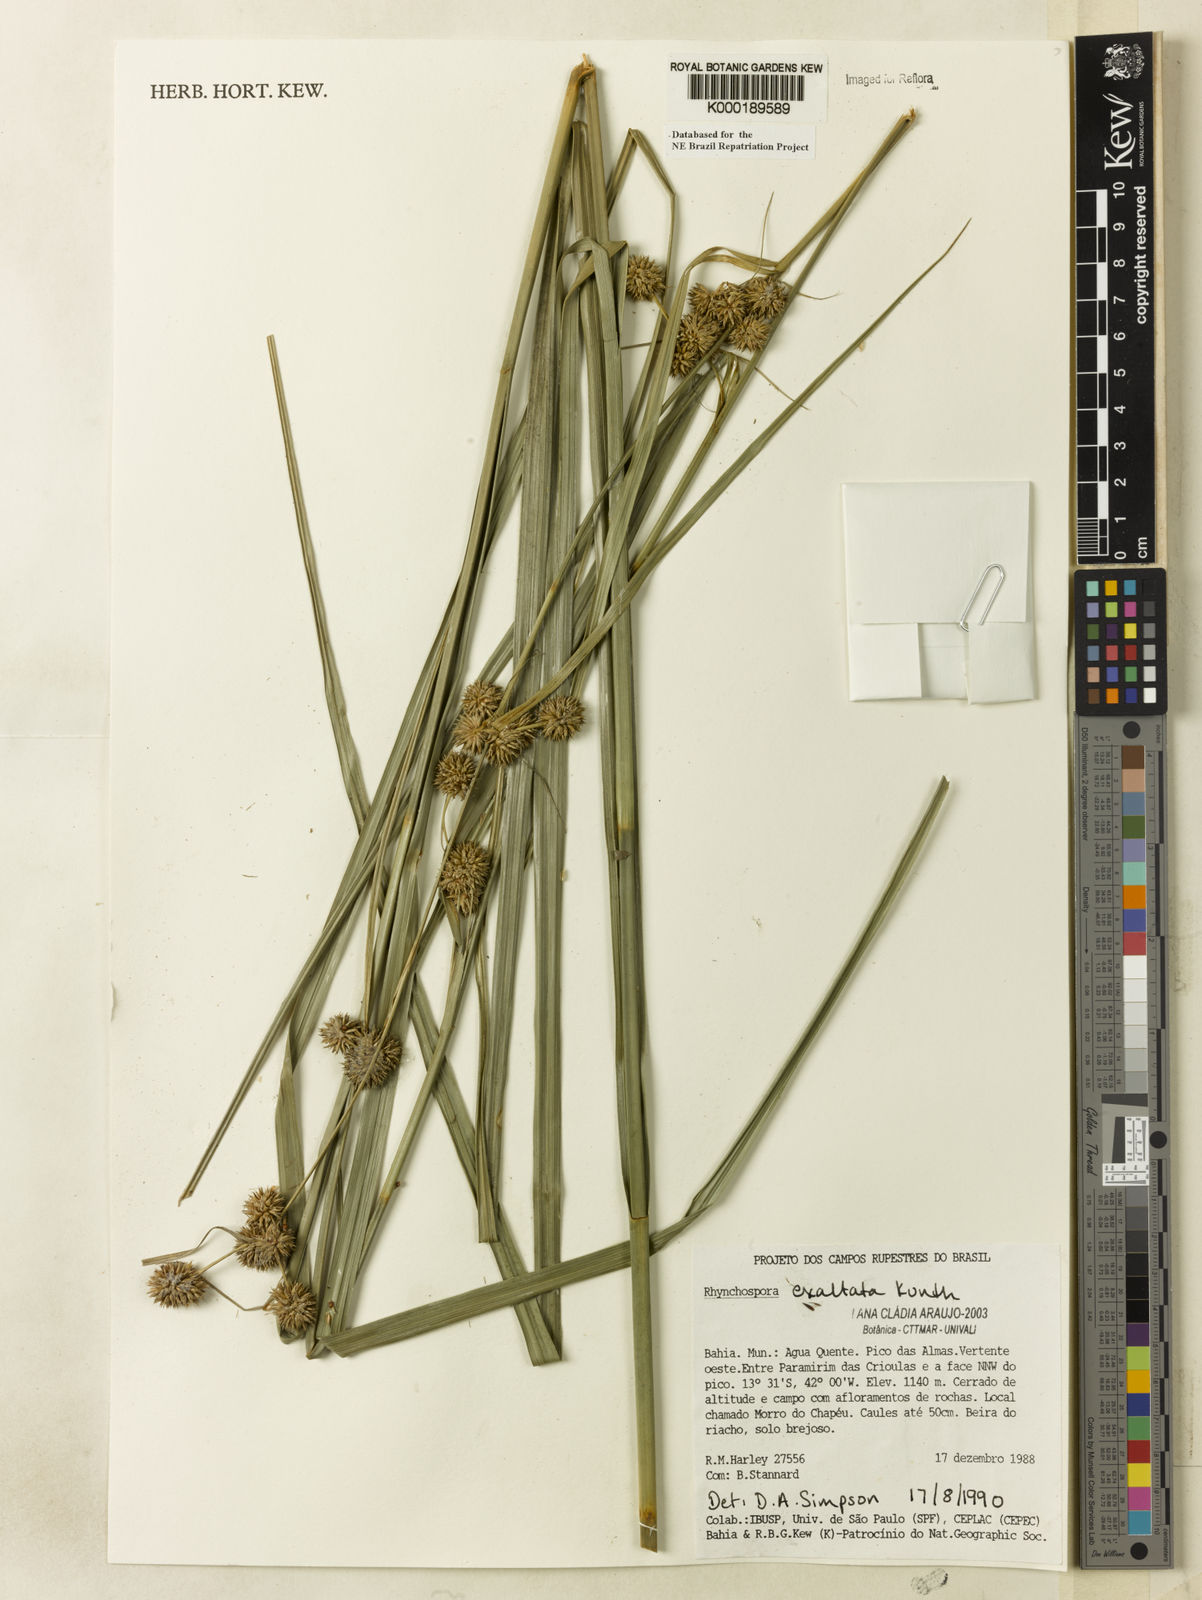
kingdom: Plantae
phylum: Tracheophyta
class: Liliopsida
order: Poales
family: Cyperaceae
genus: Rhynchospora
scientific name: Rhynchospora exaltata
